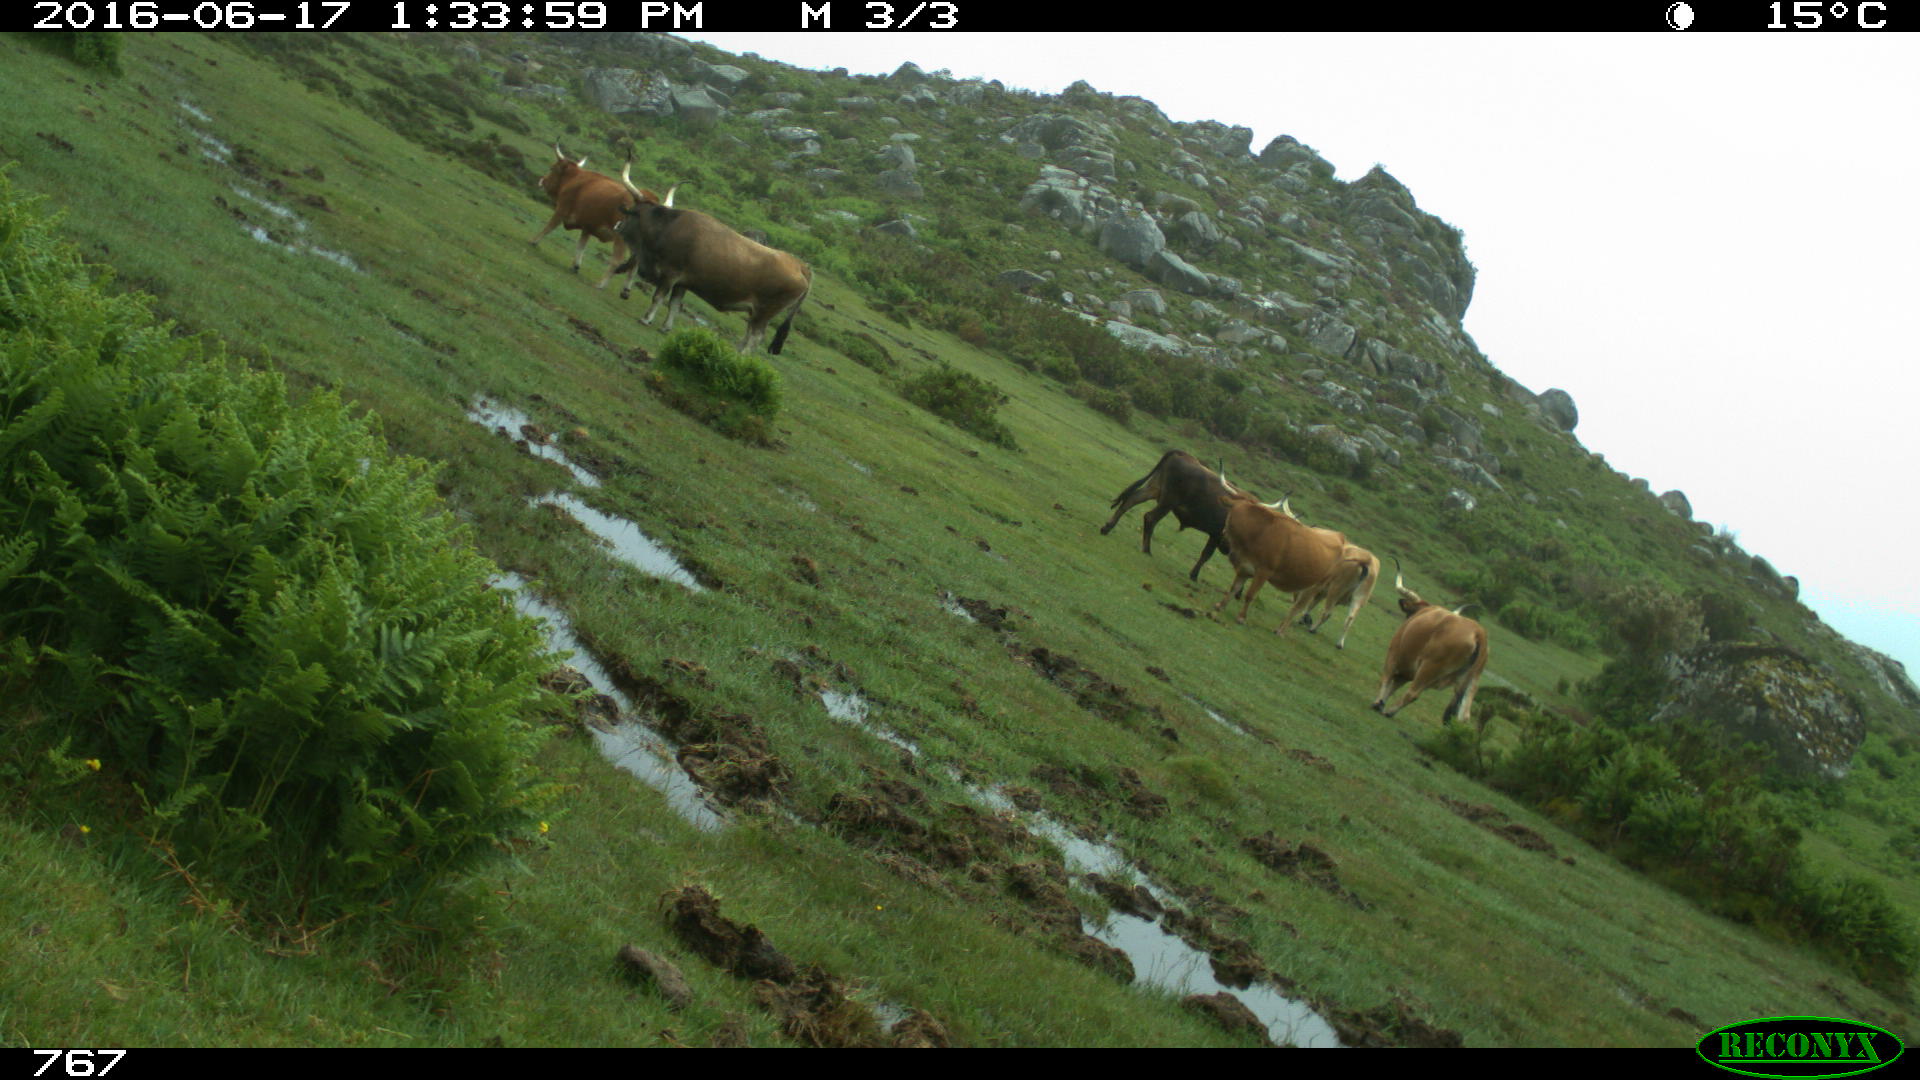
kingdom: Animalia
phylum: Chordata
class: Mammalia
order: Artiodactyla
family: Bovidae
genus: Bos
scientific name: Bos taurus
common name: Domesticated cattle
